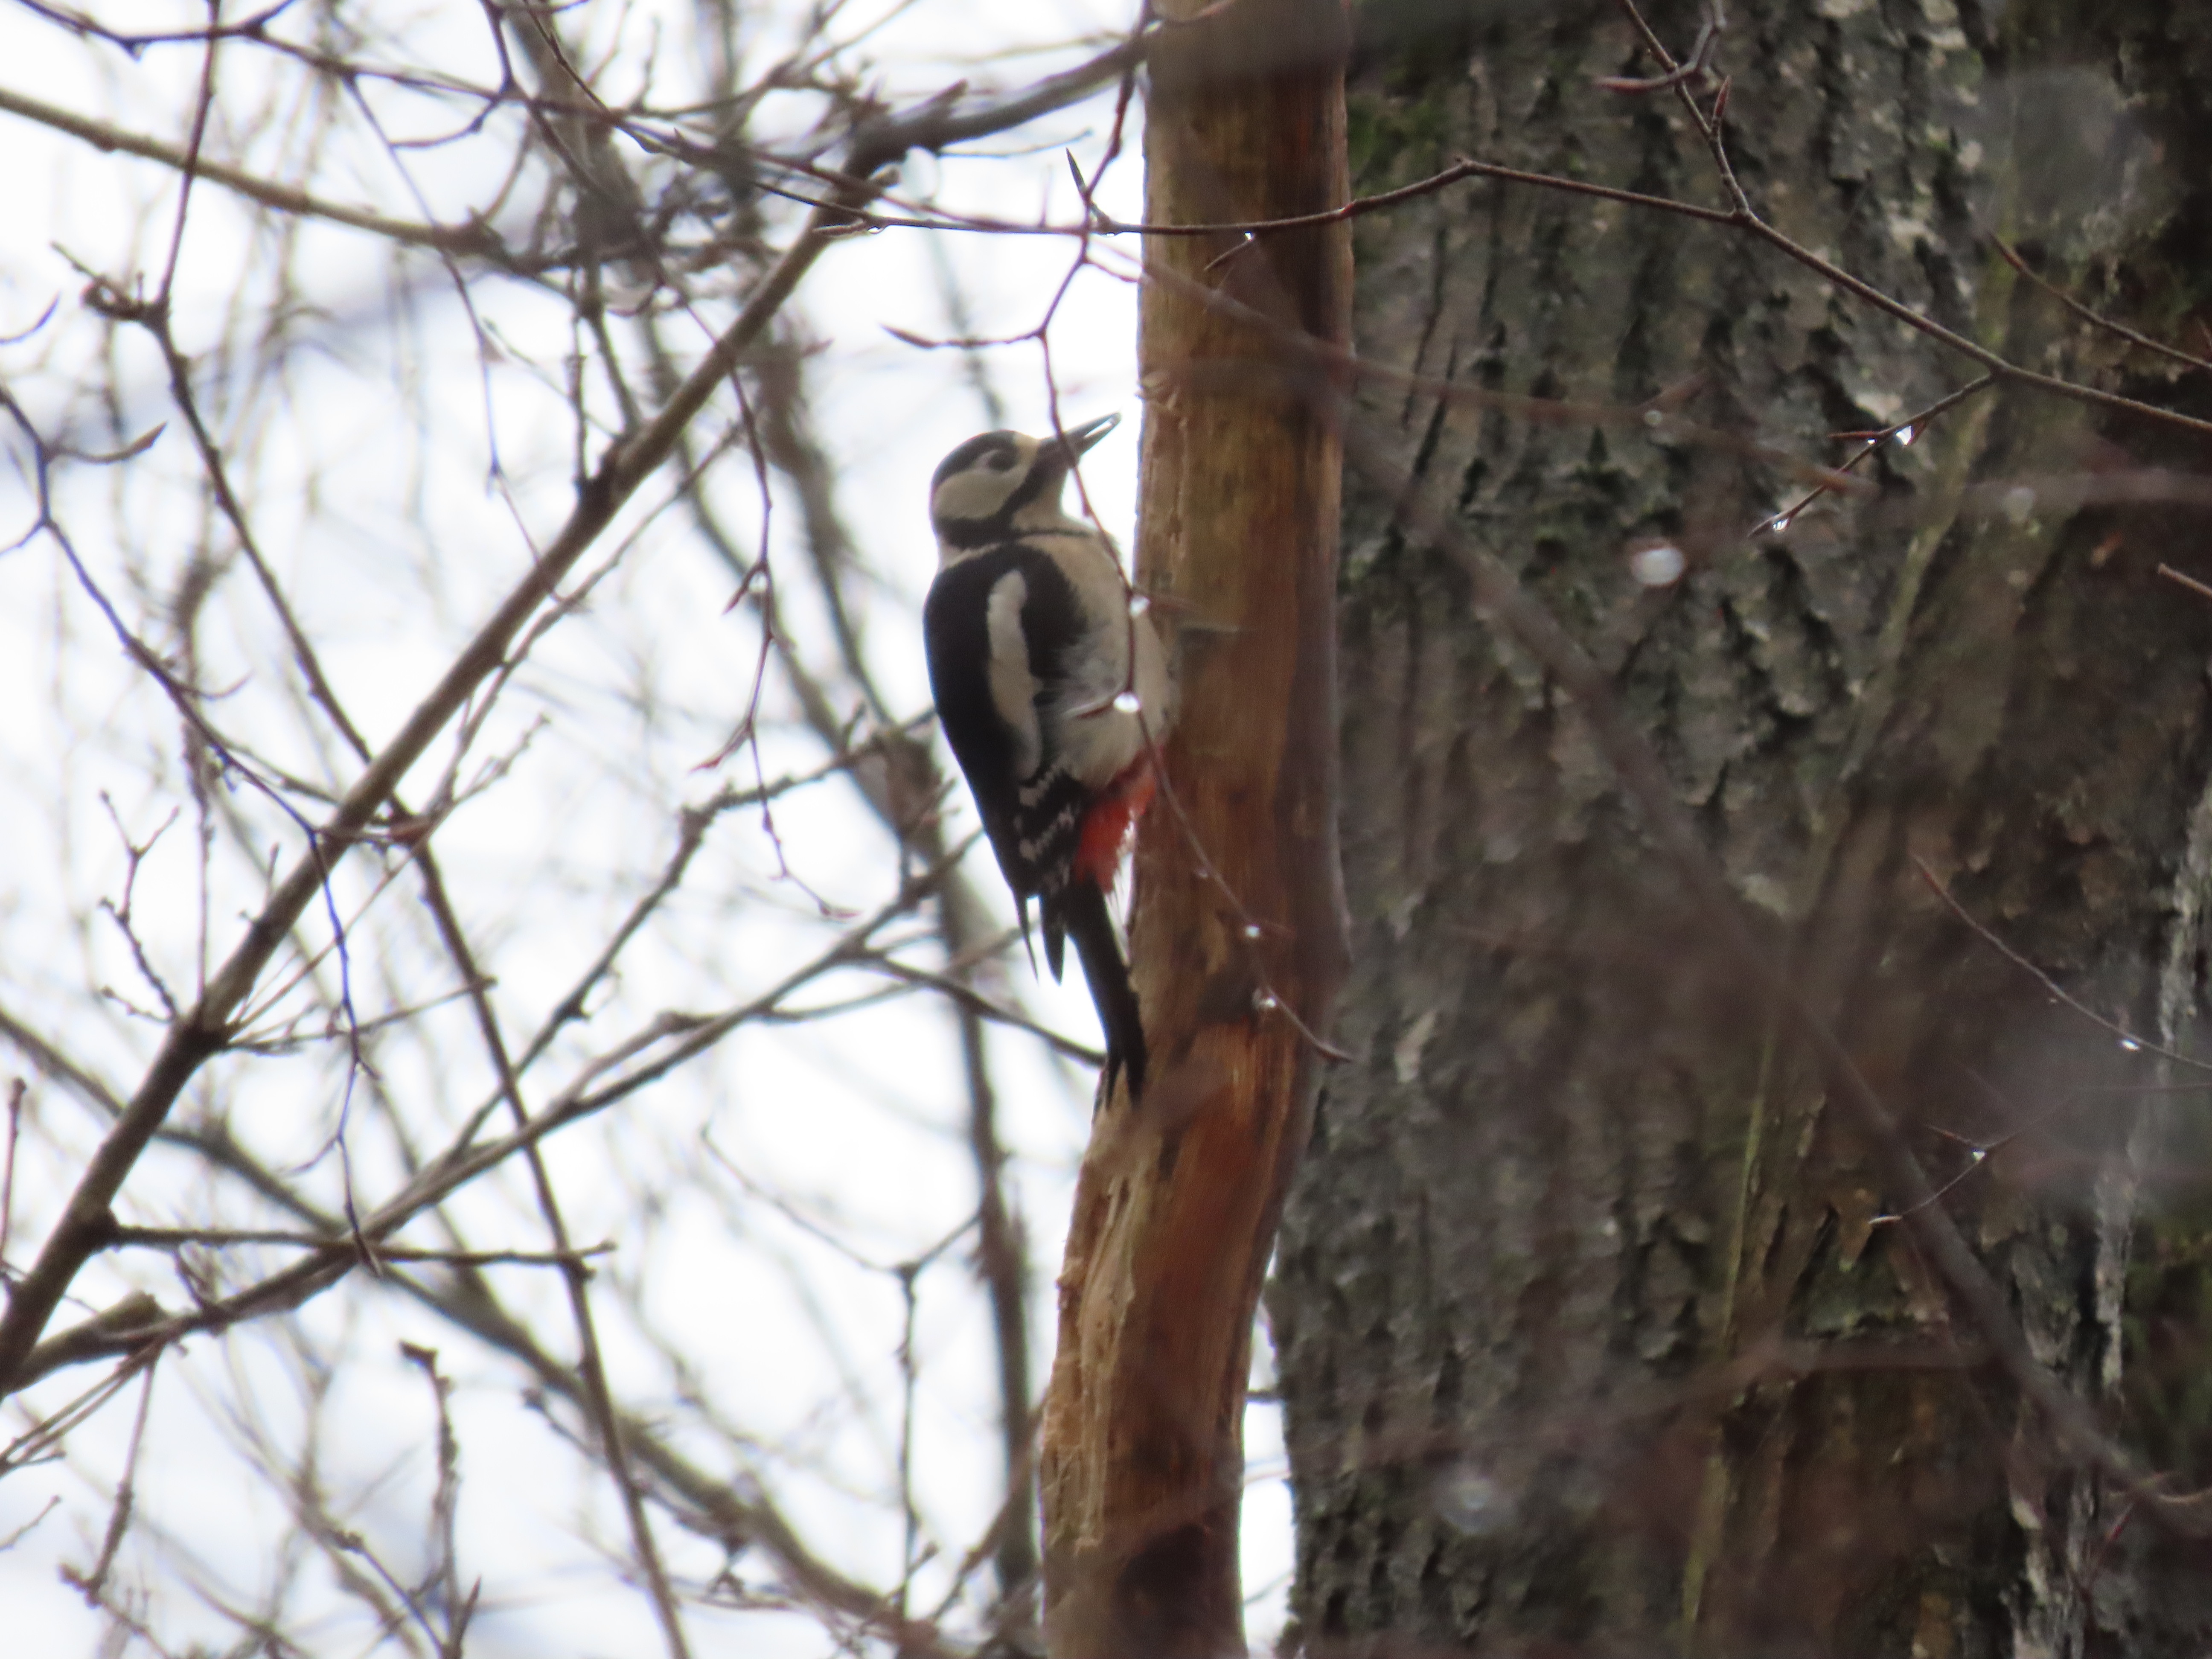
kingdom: Animalia
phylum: Chordata
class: Aves
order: Piciformes
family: Picidae
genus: Dendrocopos
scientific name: Dendrocopos major
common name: Stor flagspætte
